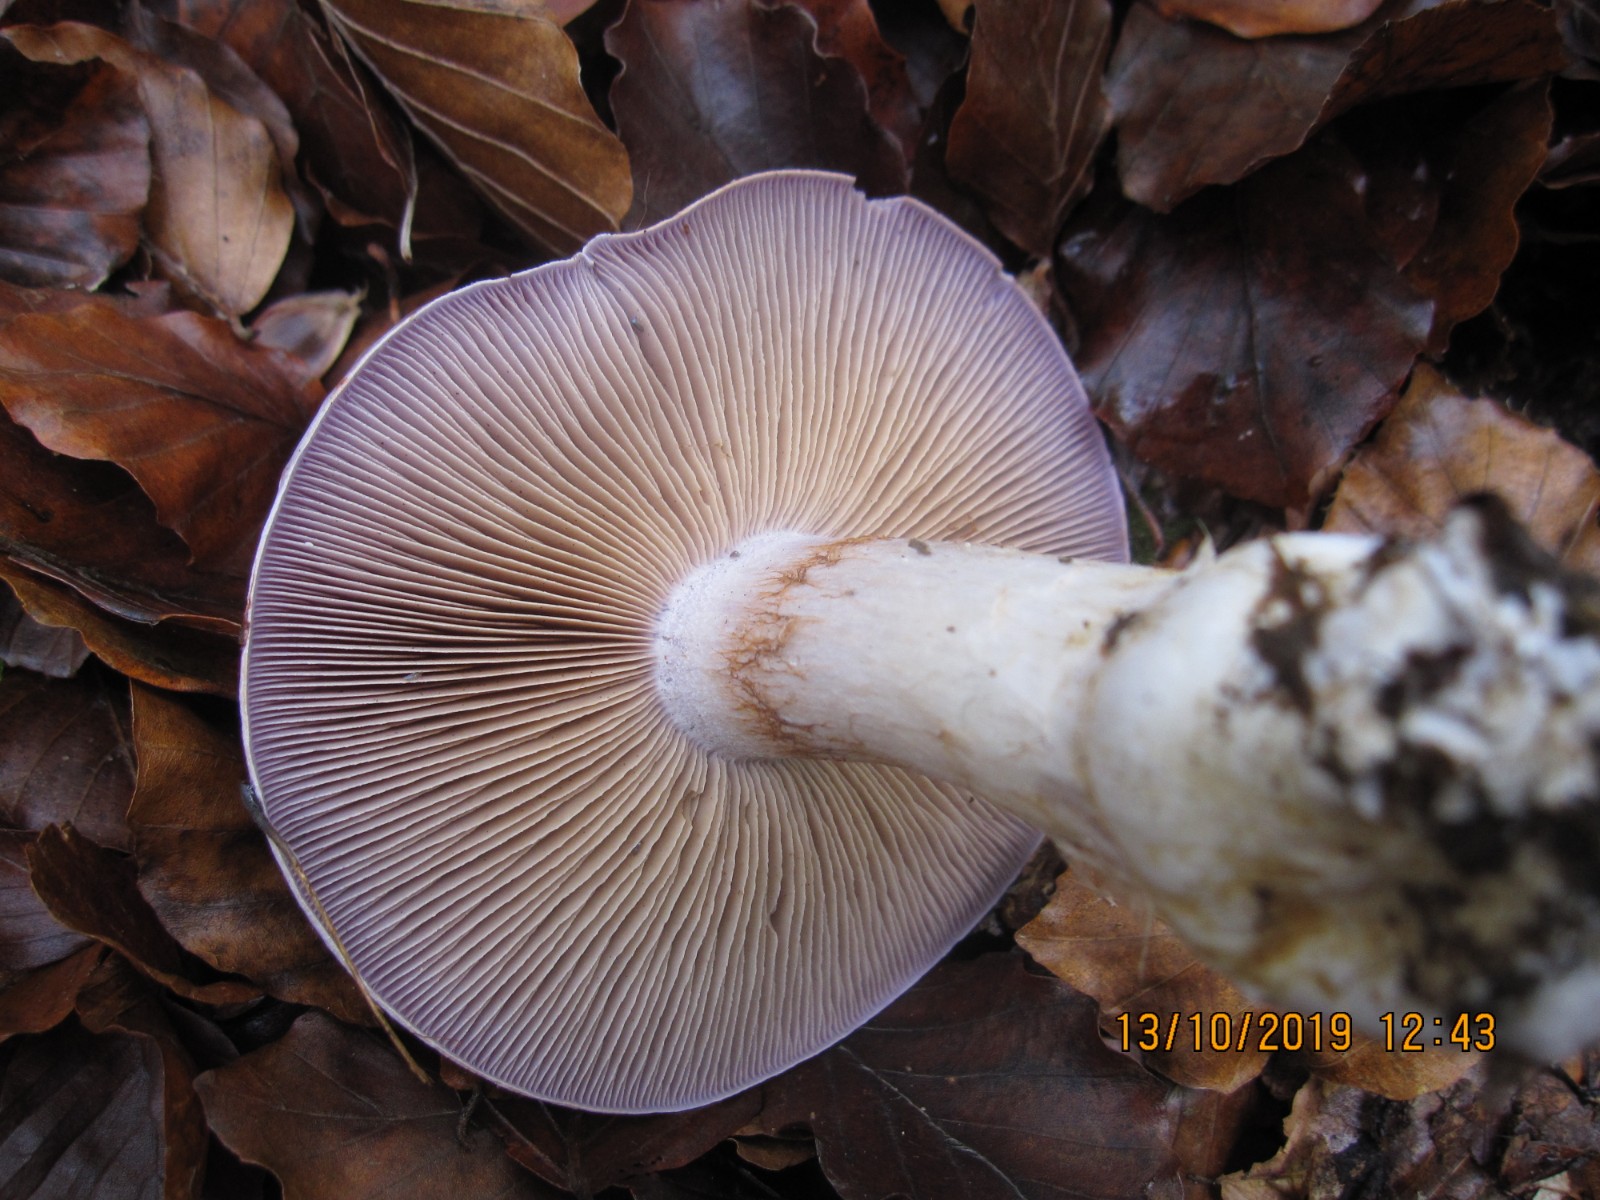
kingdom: Fungi
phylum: Basidiomycota
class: Agaricomycetes
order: Agaricales
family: Cortinariaceae
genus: Cortinarius
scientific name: Cortinarius largus
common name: violetrandet slørhat
